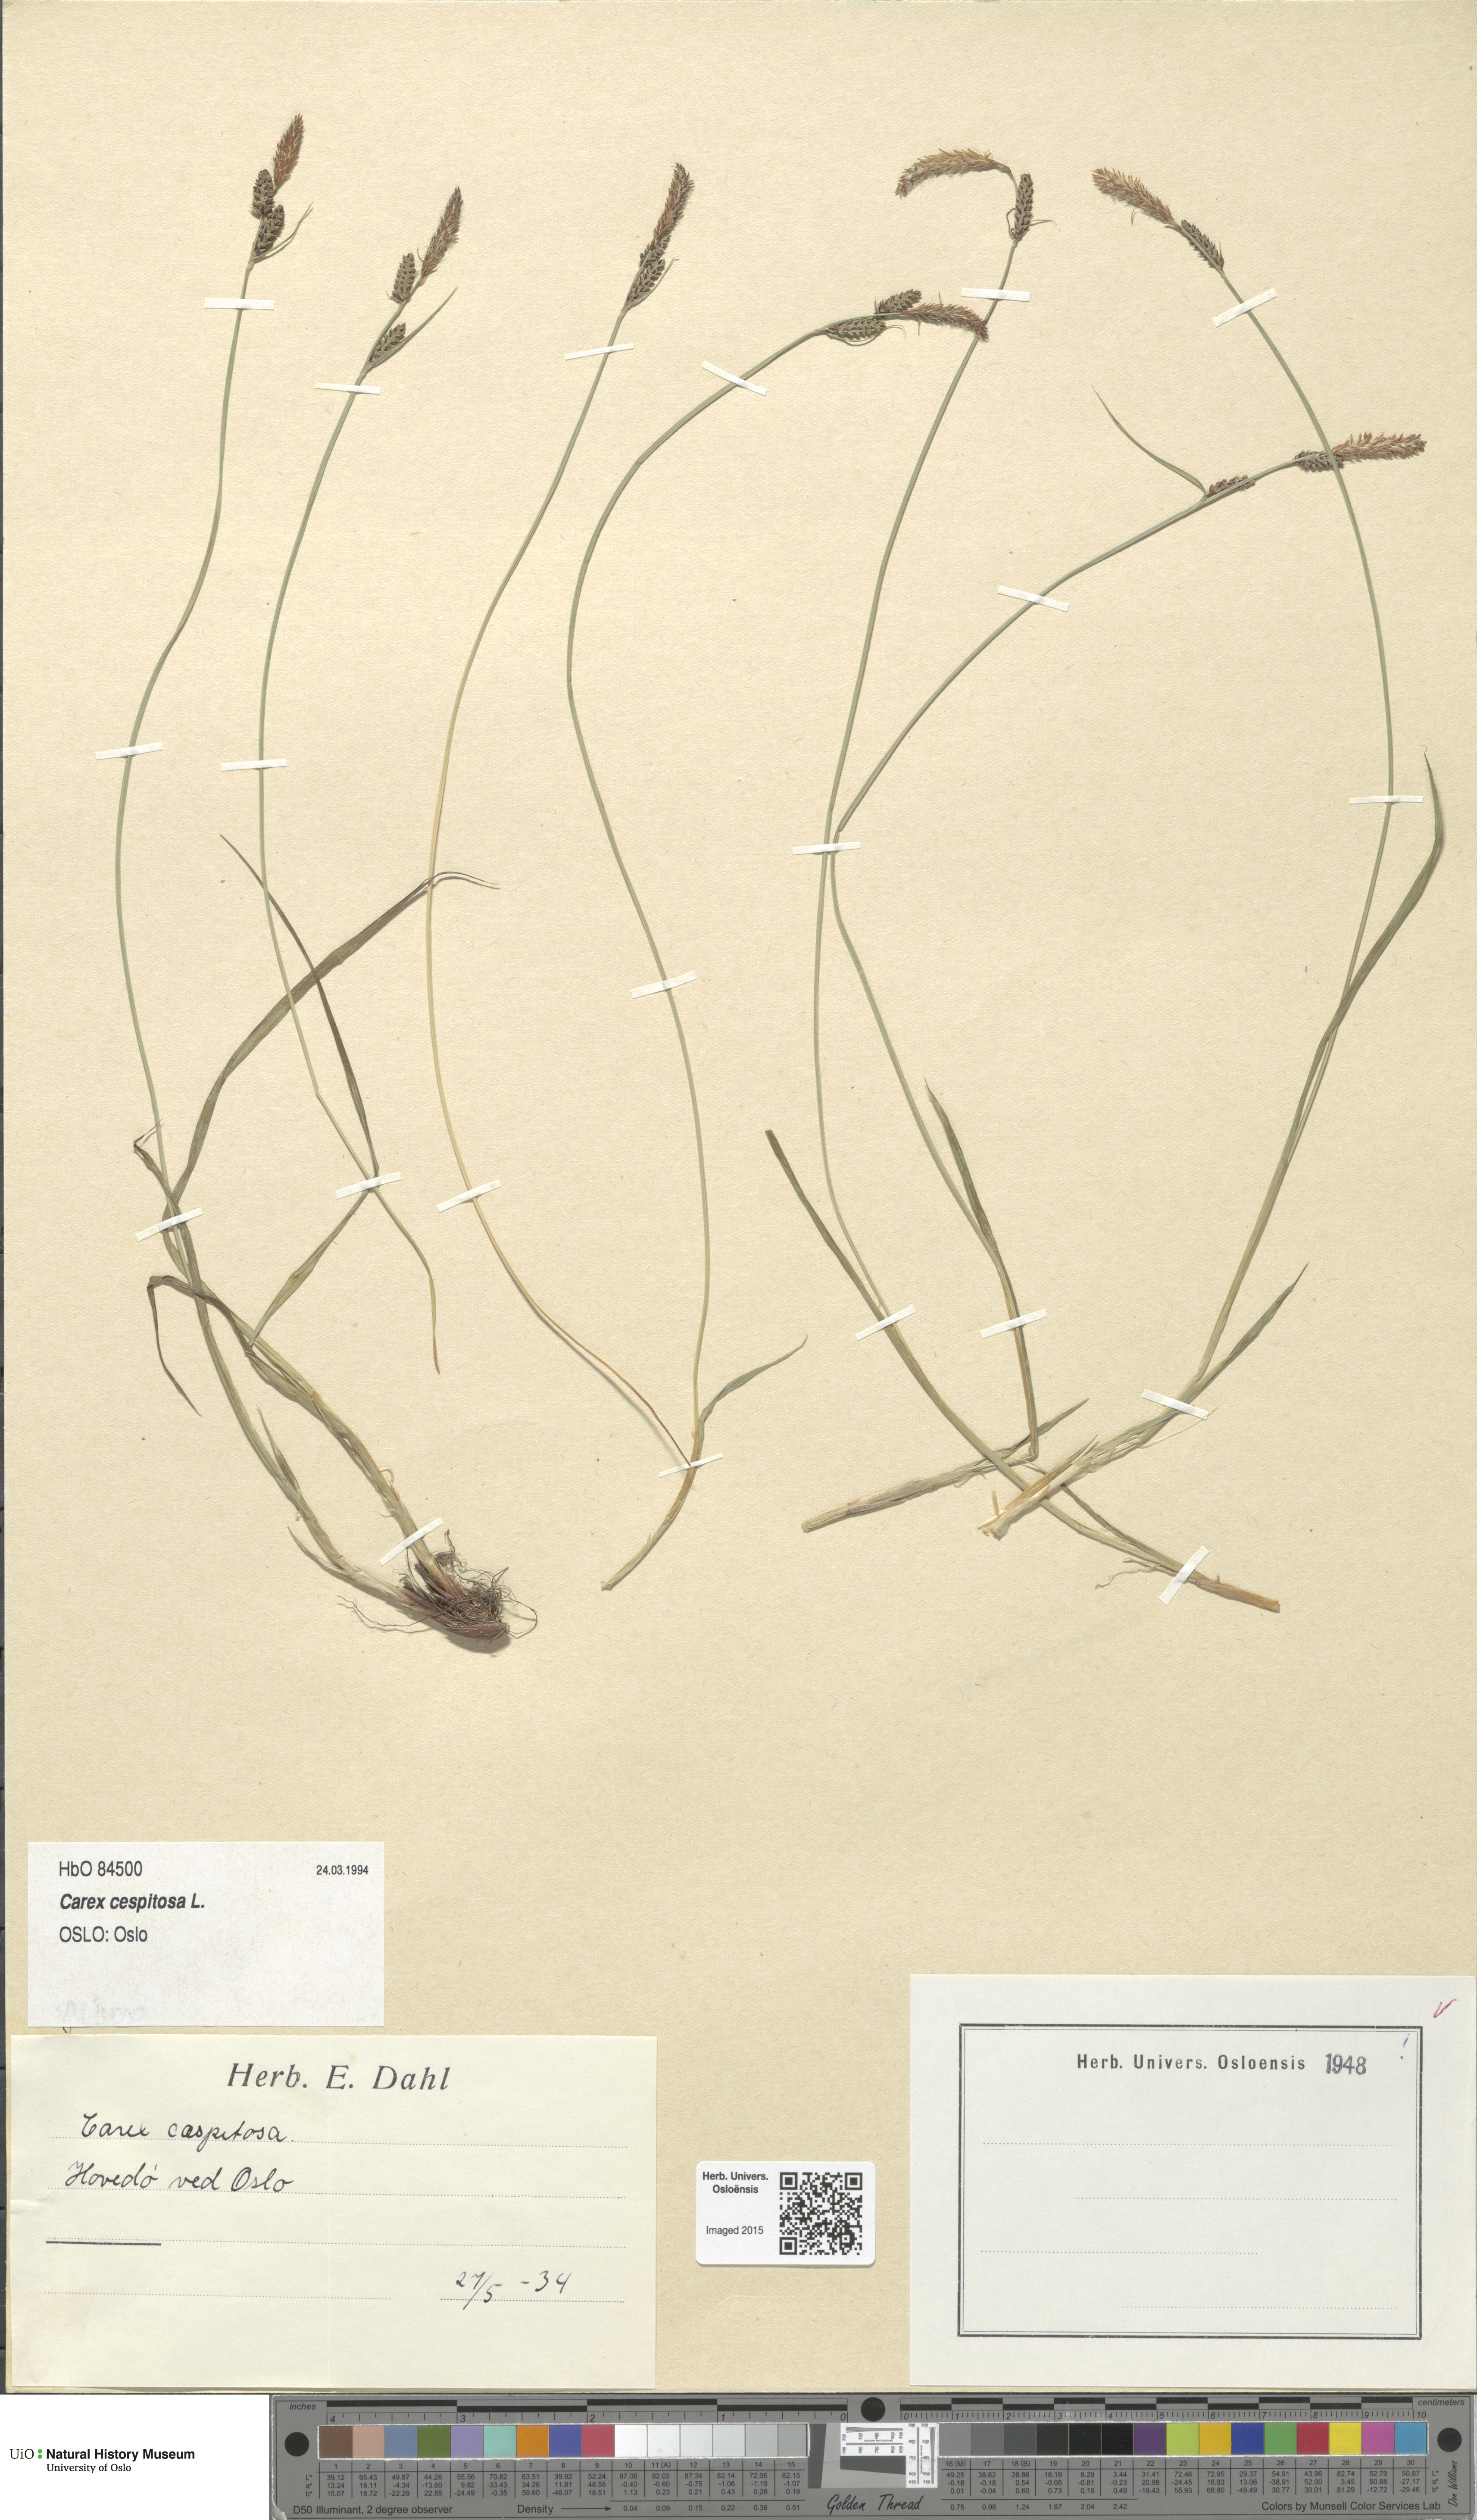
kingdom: Plantae
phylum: Tracheophyta
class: Liliopsida
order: Poales
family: Cyperaceae
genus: Carex
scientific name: Carex cespitosa
